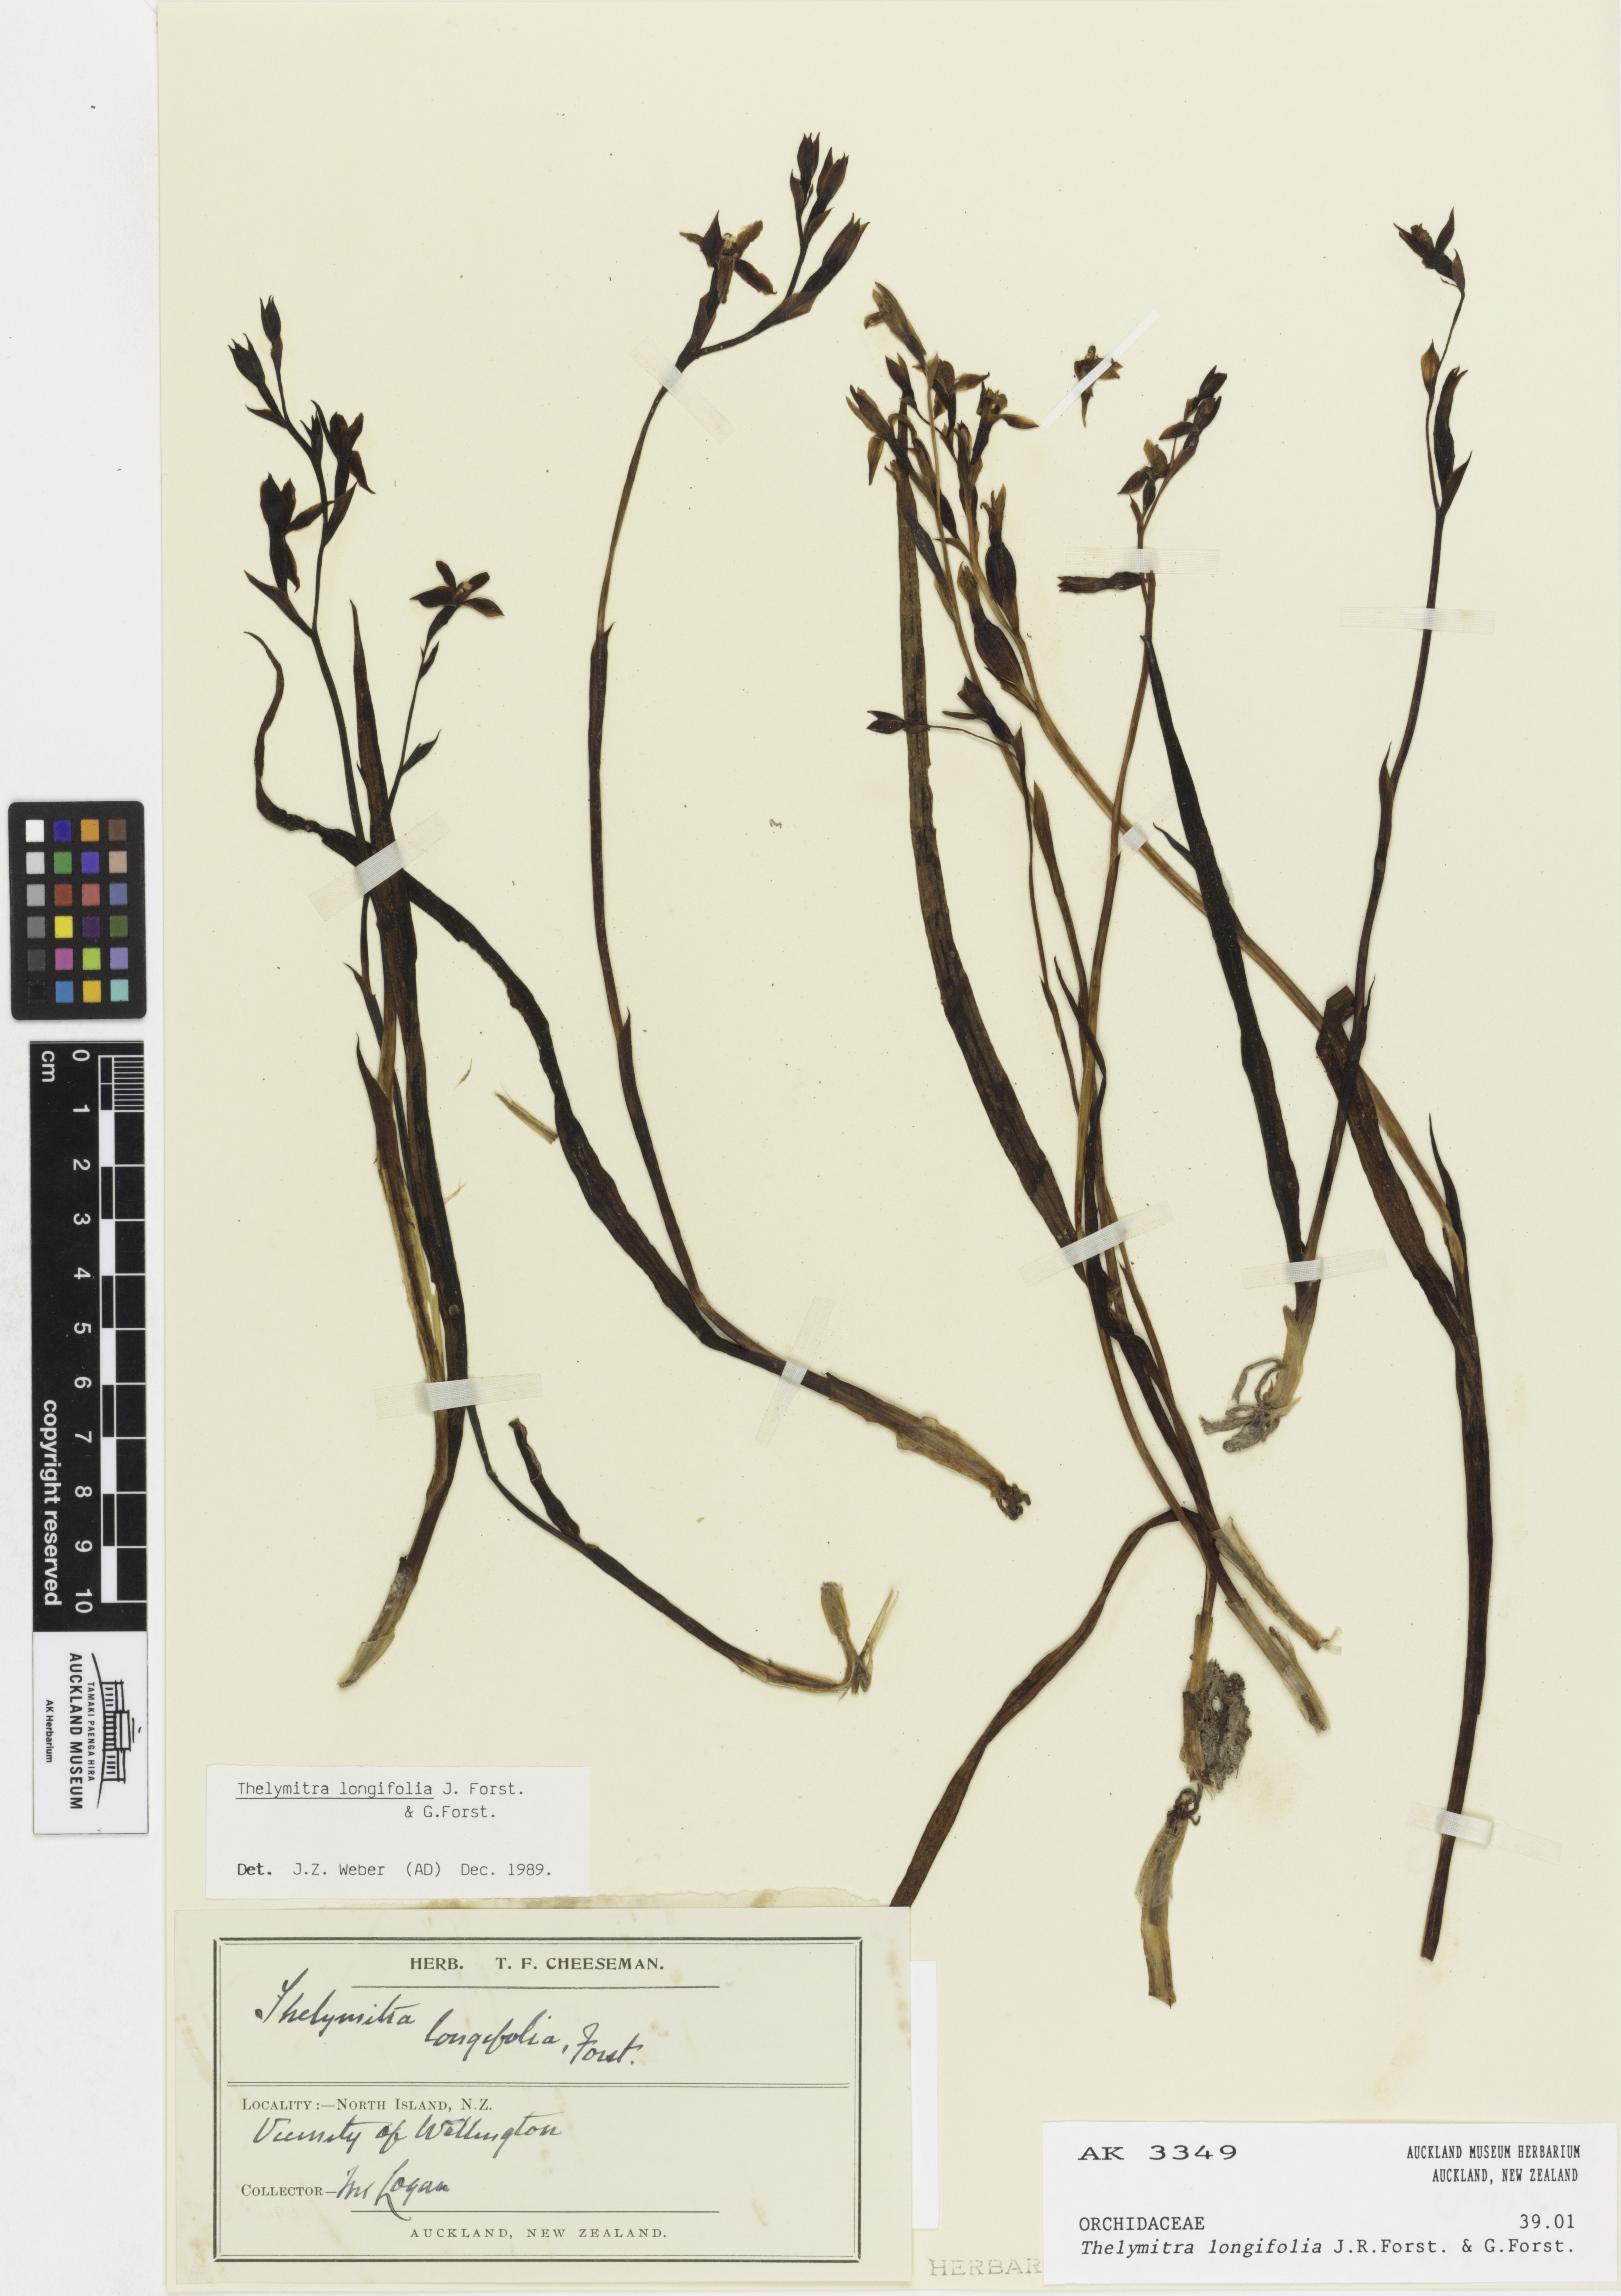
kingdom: Plantae
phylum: Tracheophyta
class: Liliopsida
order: Asparagales
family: Orchidaceae
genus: Thelymitra
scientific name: Thelymitra longifolia
